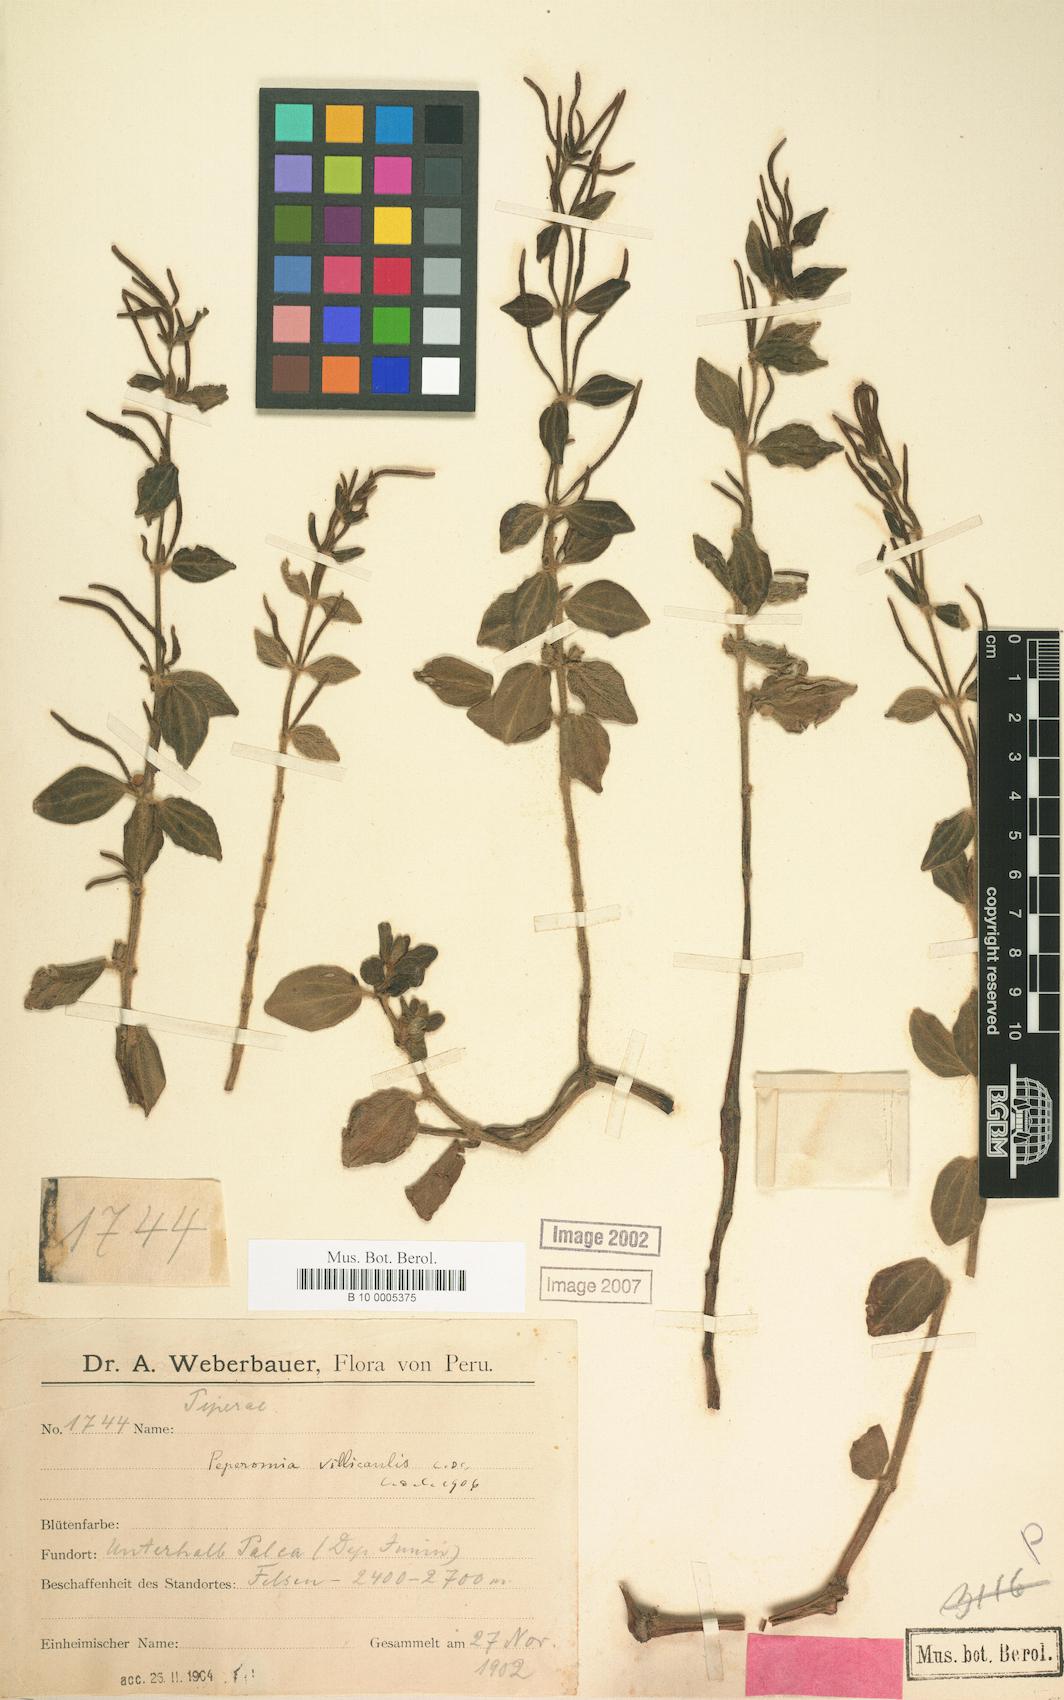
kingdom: Plantae
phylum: Tracheophyta
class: Magnoliopsida
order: Piperales
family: Piperaceae
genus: Peperomia
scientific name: Peperomia villicaulis
